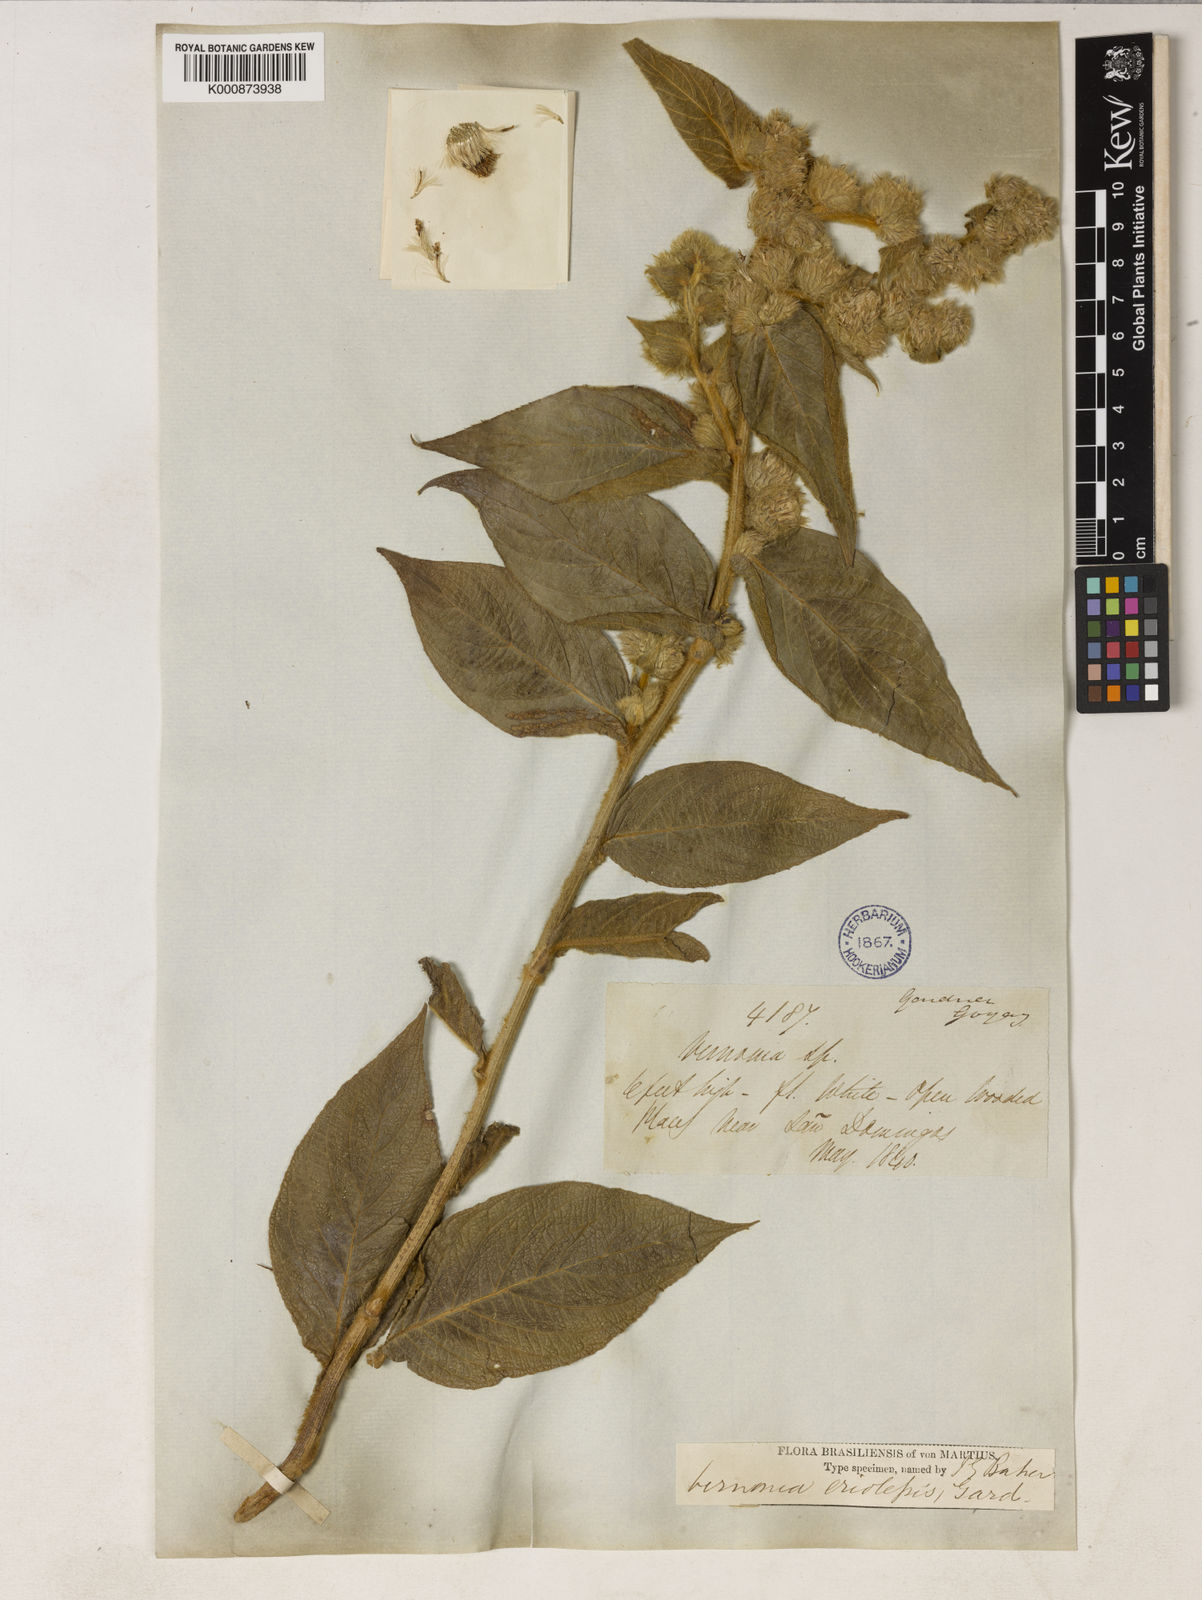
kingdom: Plantae
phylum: Tracheophyta
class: Magnoliopsida
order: Asterales
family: Asteraceae
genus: Lepidaploa
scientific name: Lepidaploa eriolepis
